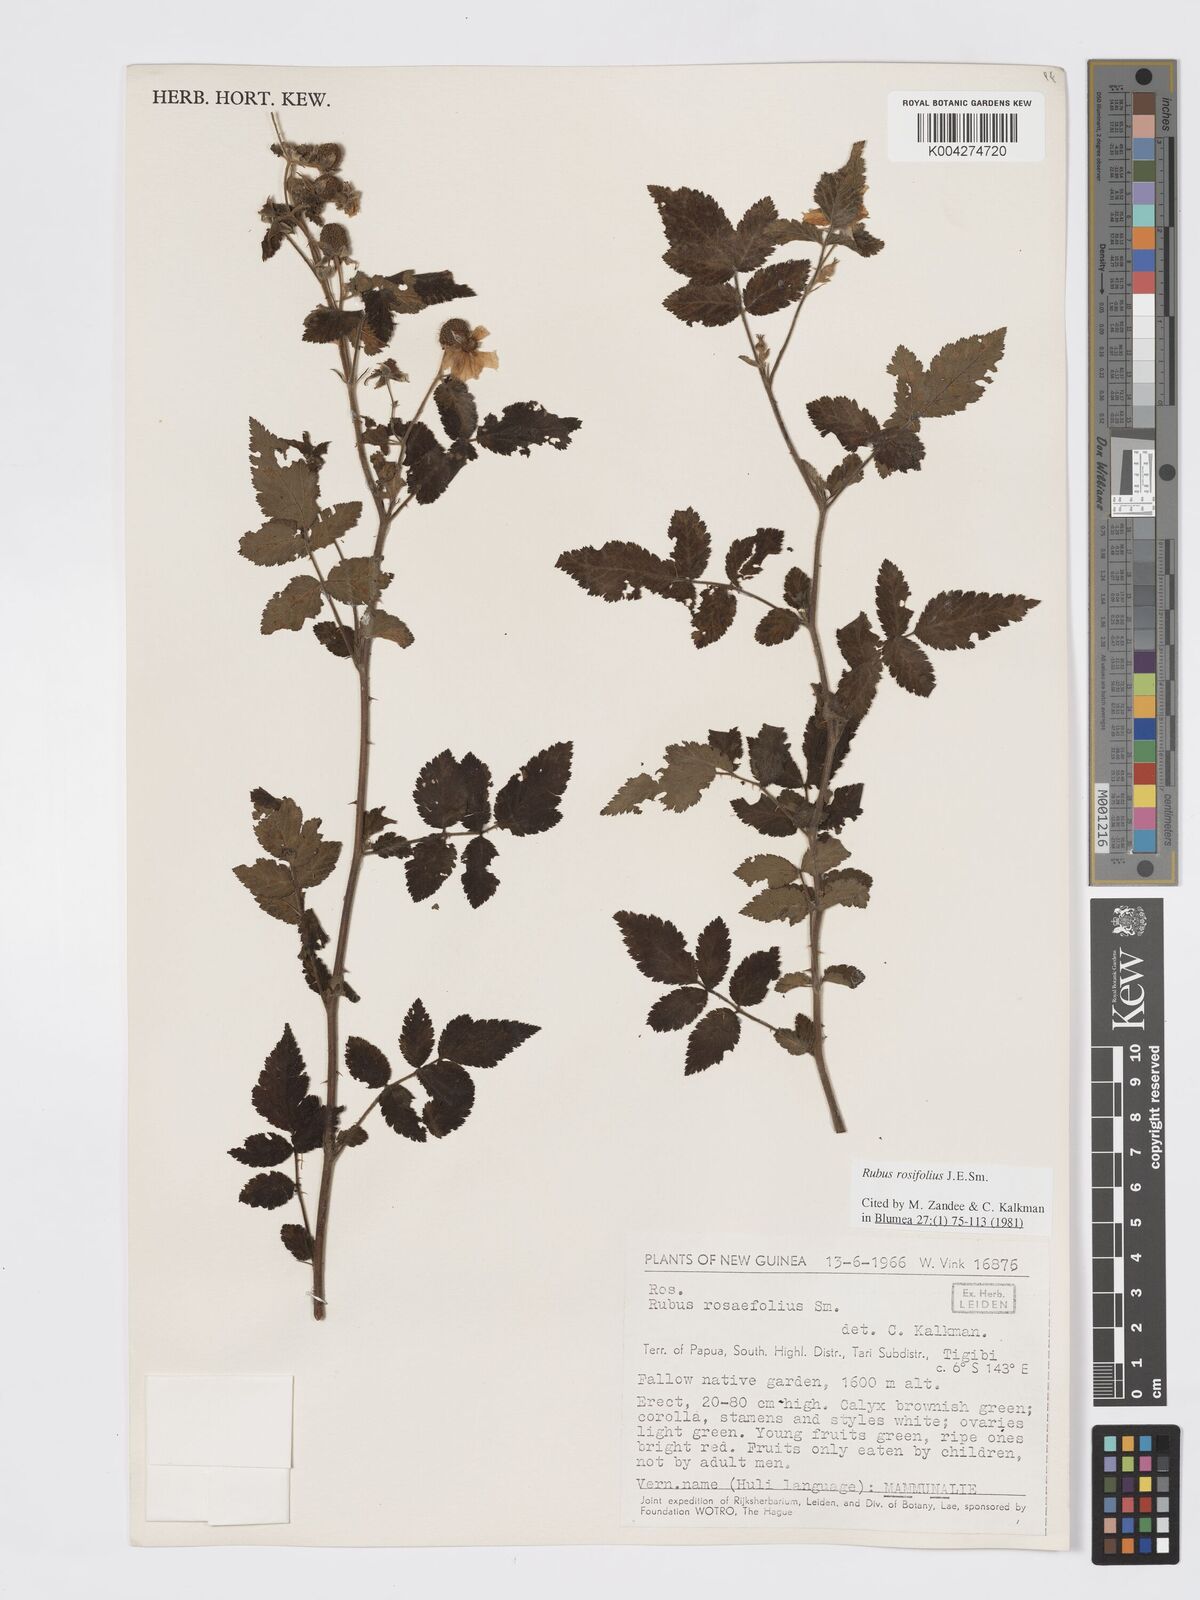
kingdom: Plantae
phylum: Tracheophyta
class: Magnoliopsida
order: Rosales
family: Rosaceae
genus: Rubus
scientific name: Rubus
